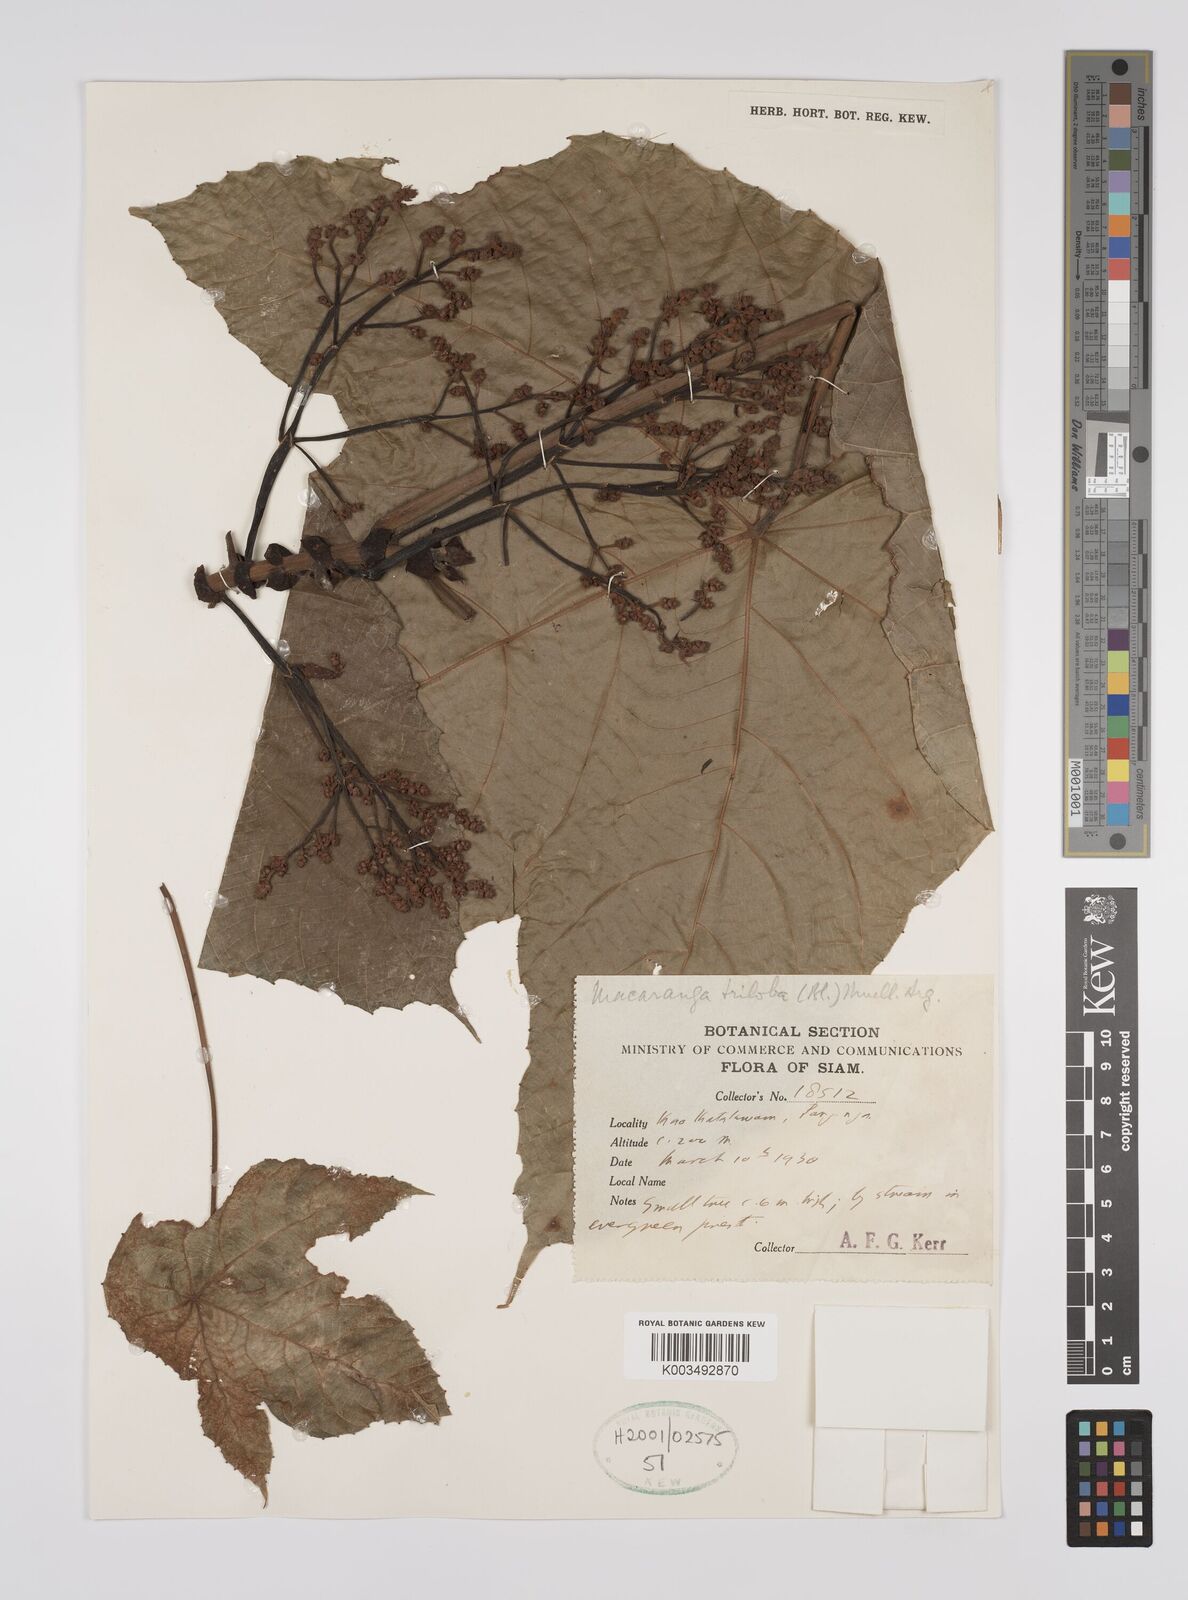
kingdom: Plantae
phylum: Tracheophyta
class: Magnoliopsida
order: Malpighiales
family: Euphorbiaceae
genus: Macaranga
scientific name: Macaranga triloba
